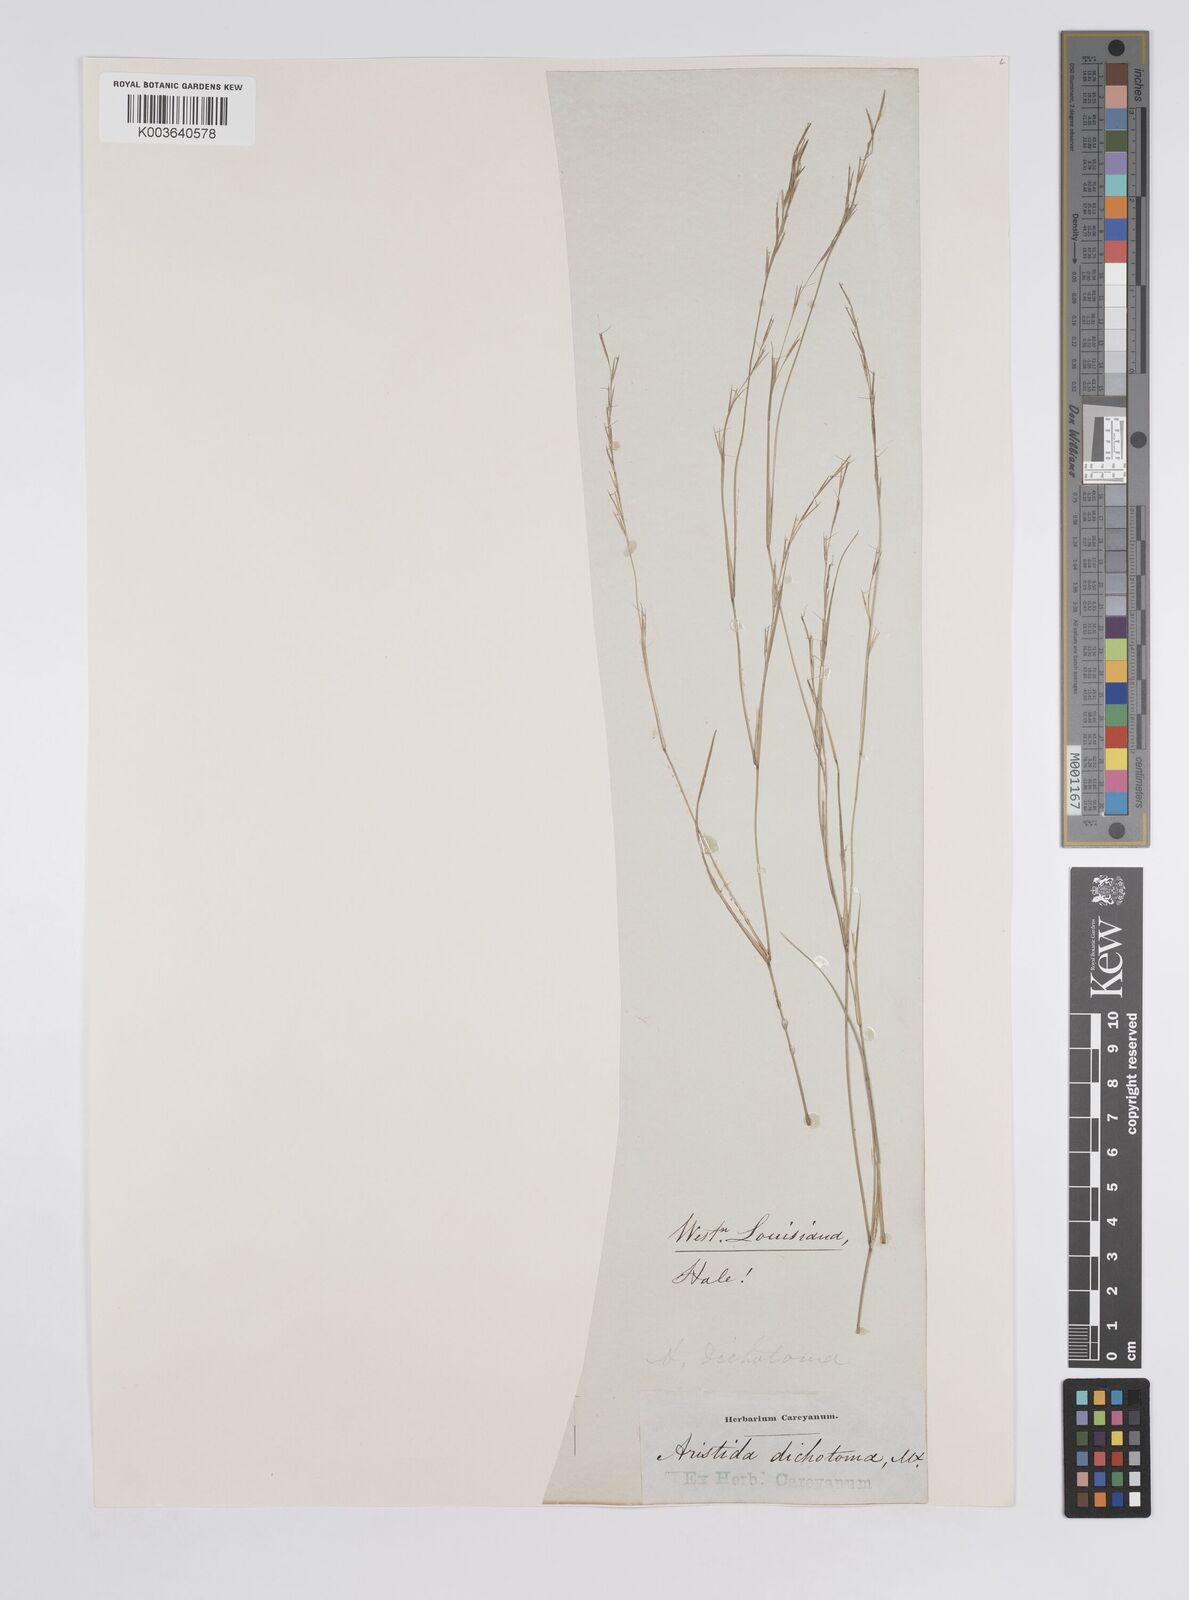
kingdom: Plantae
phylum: Tracheophyta
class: Liliopsida
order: Poales
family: Poaceae
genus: Aristida
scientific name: Aristida dichotoma
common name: Churchmouse three-awn
